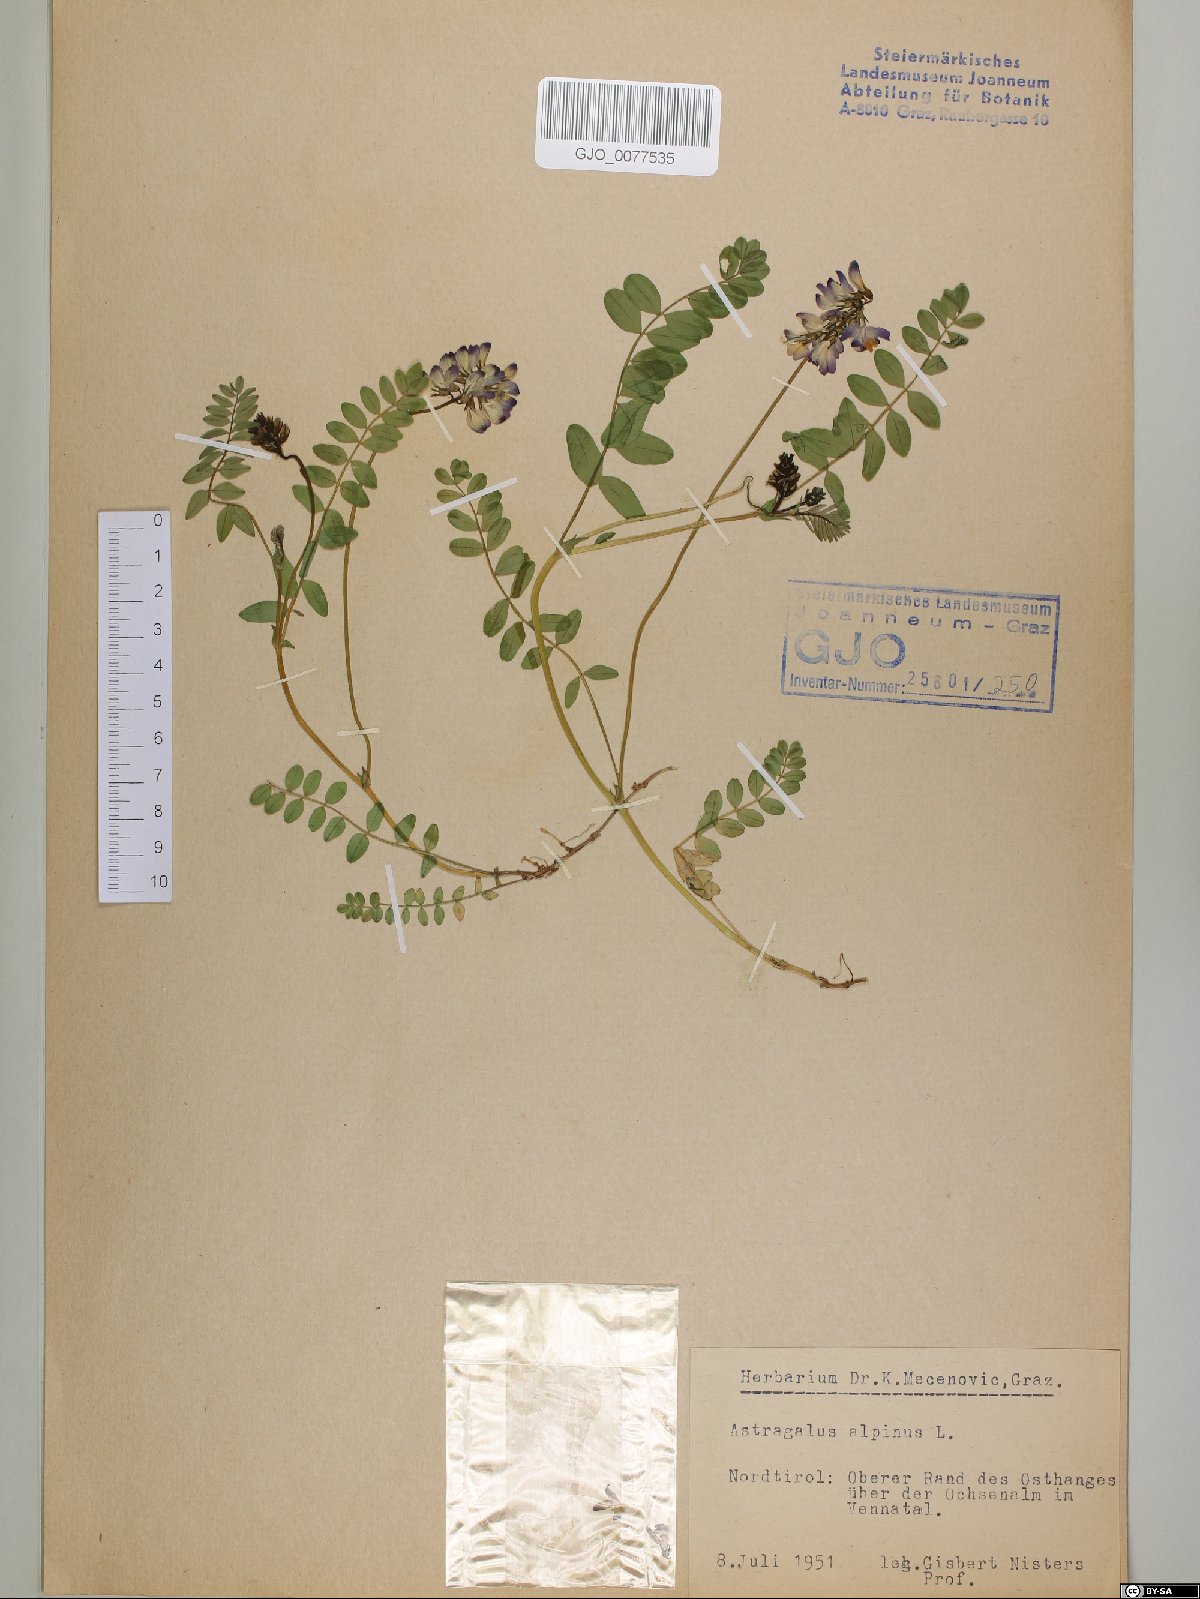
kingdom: Plantae
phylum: Tracheophyta
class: Magnoliopsida
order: Fabales
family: Fabaceae
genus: Astragalus
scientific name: Astragalus alpinus
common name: Alpine milk-vetch
